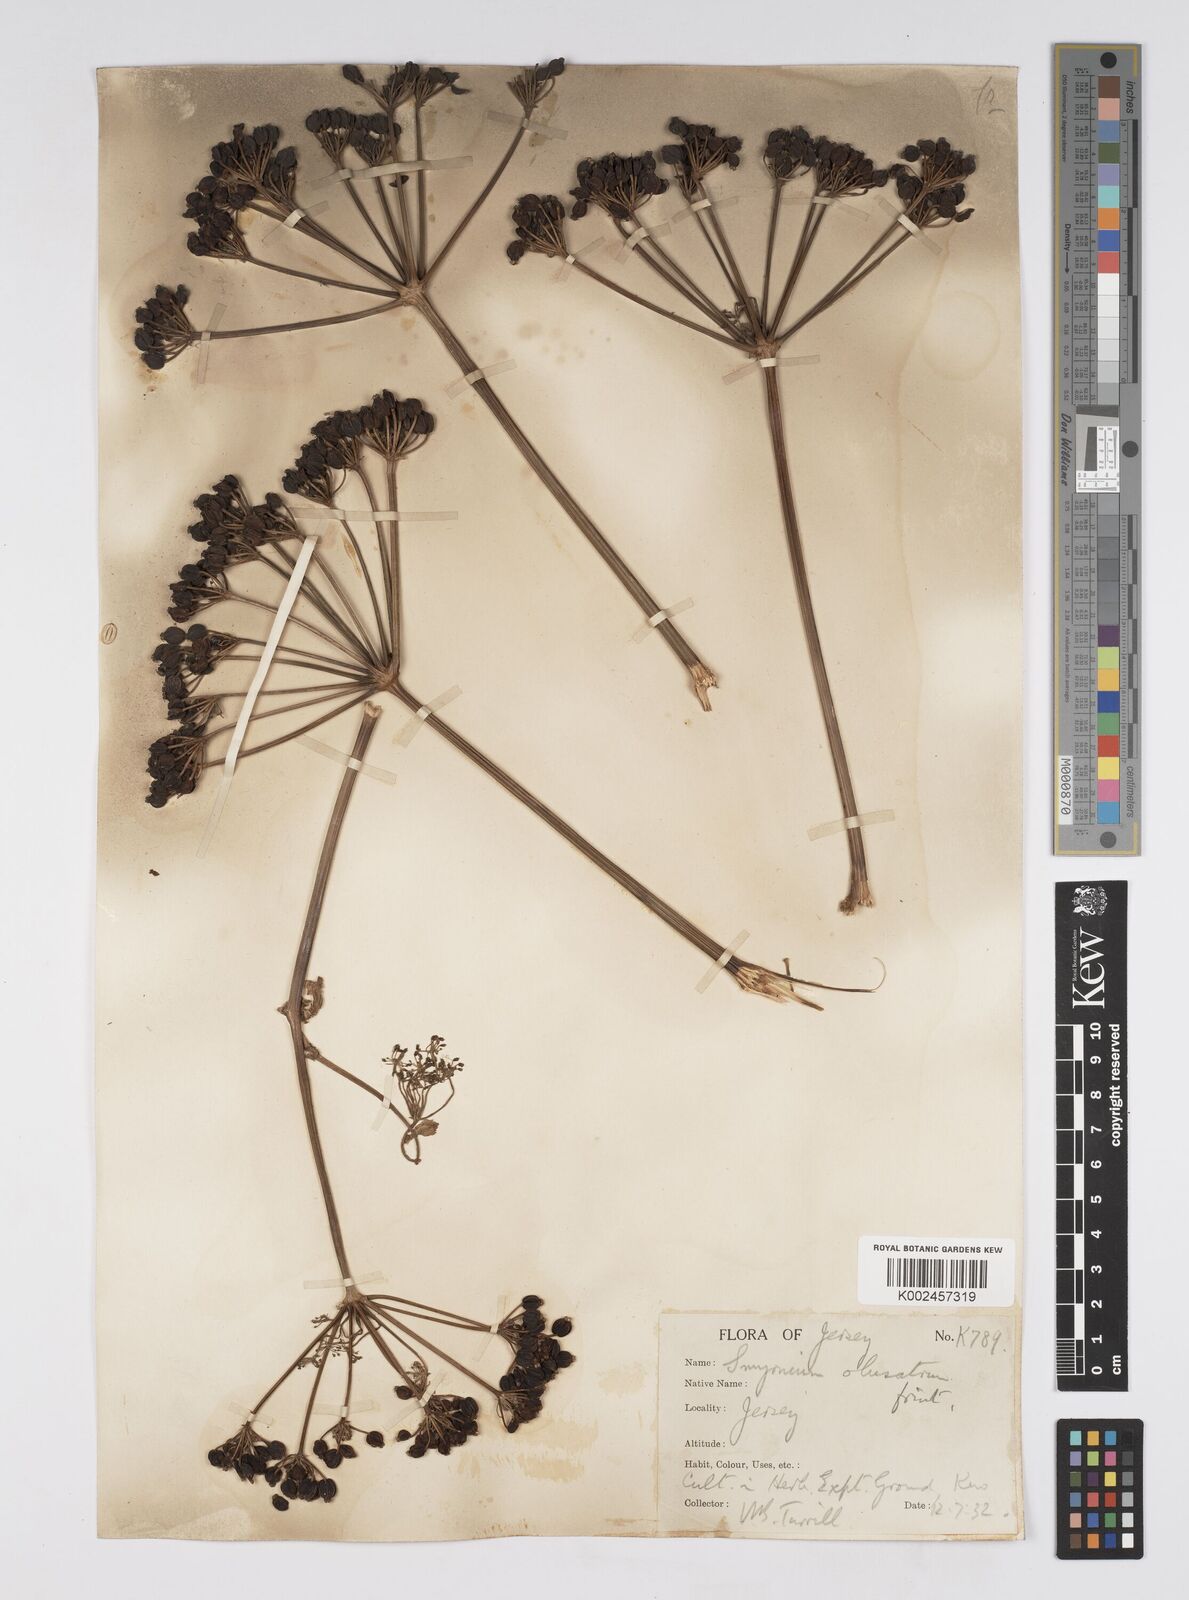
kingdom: Plantae
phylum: Tracheophyta
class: Magnoliopsida
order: Apiales
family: Apiaceae
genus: Smyrnium
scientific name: Smyrnium olusatrum
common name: Alexanders
